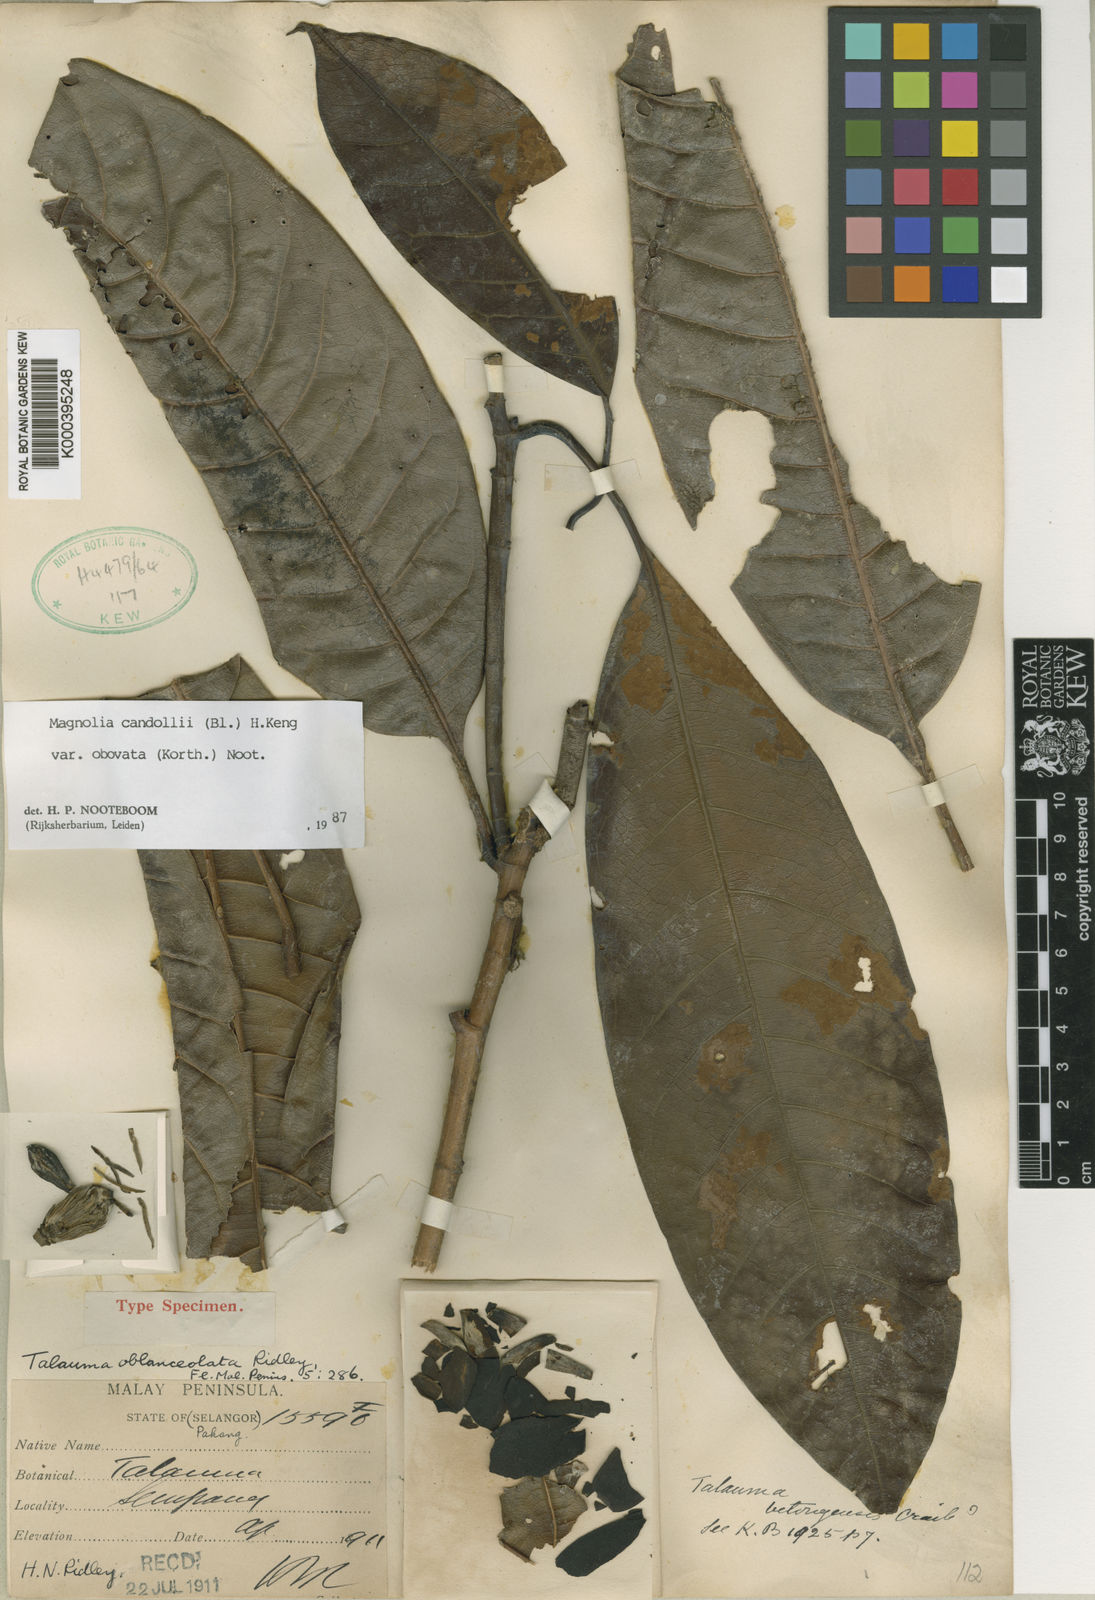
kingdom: Plantae
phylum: Tracheophyta
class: Magnoliopsida
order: Magnoliales
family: Magnoliaceae
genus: Magnolia
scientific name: Magnolia betongensis
